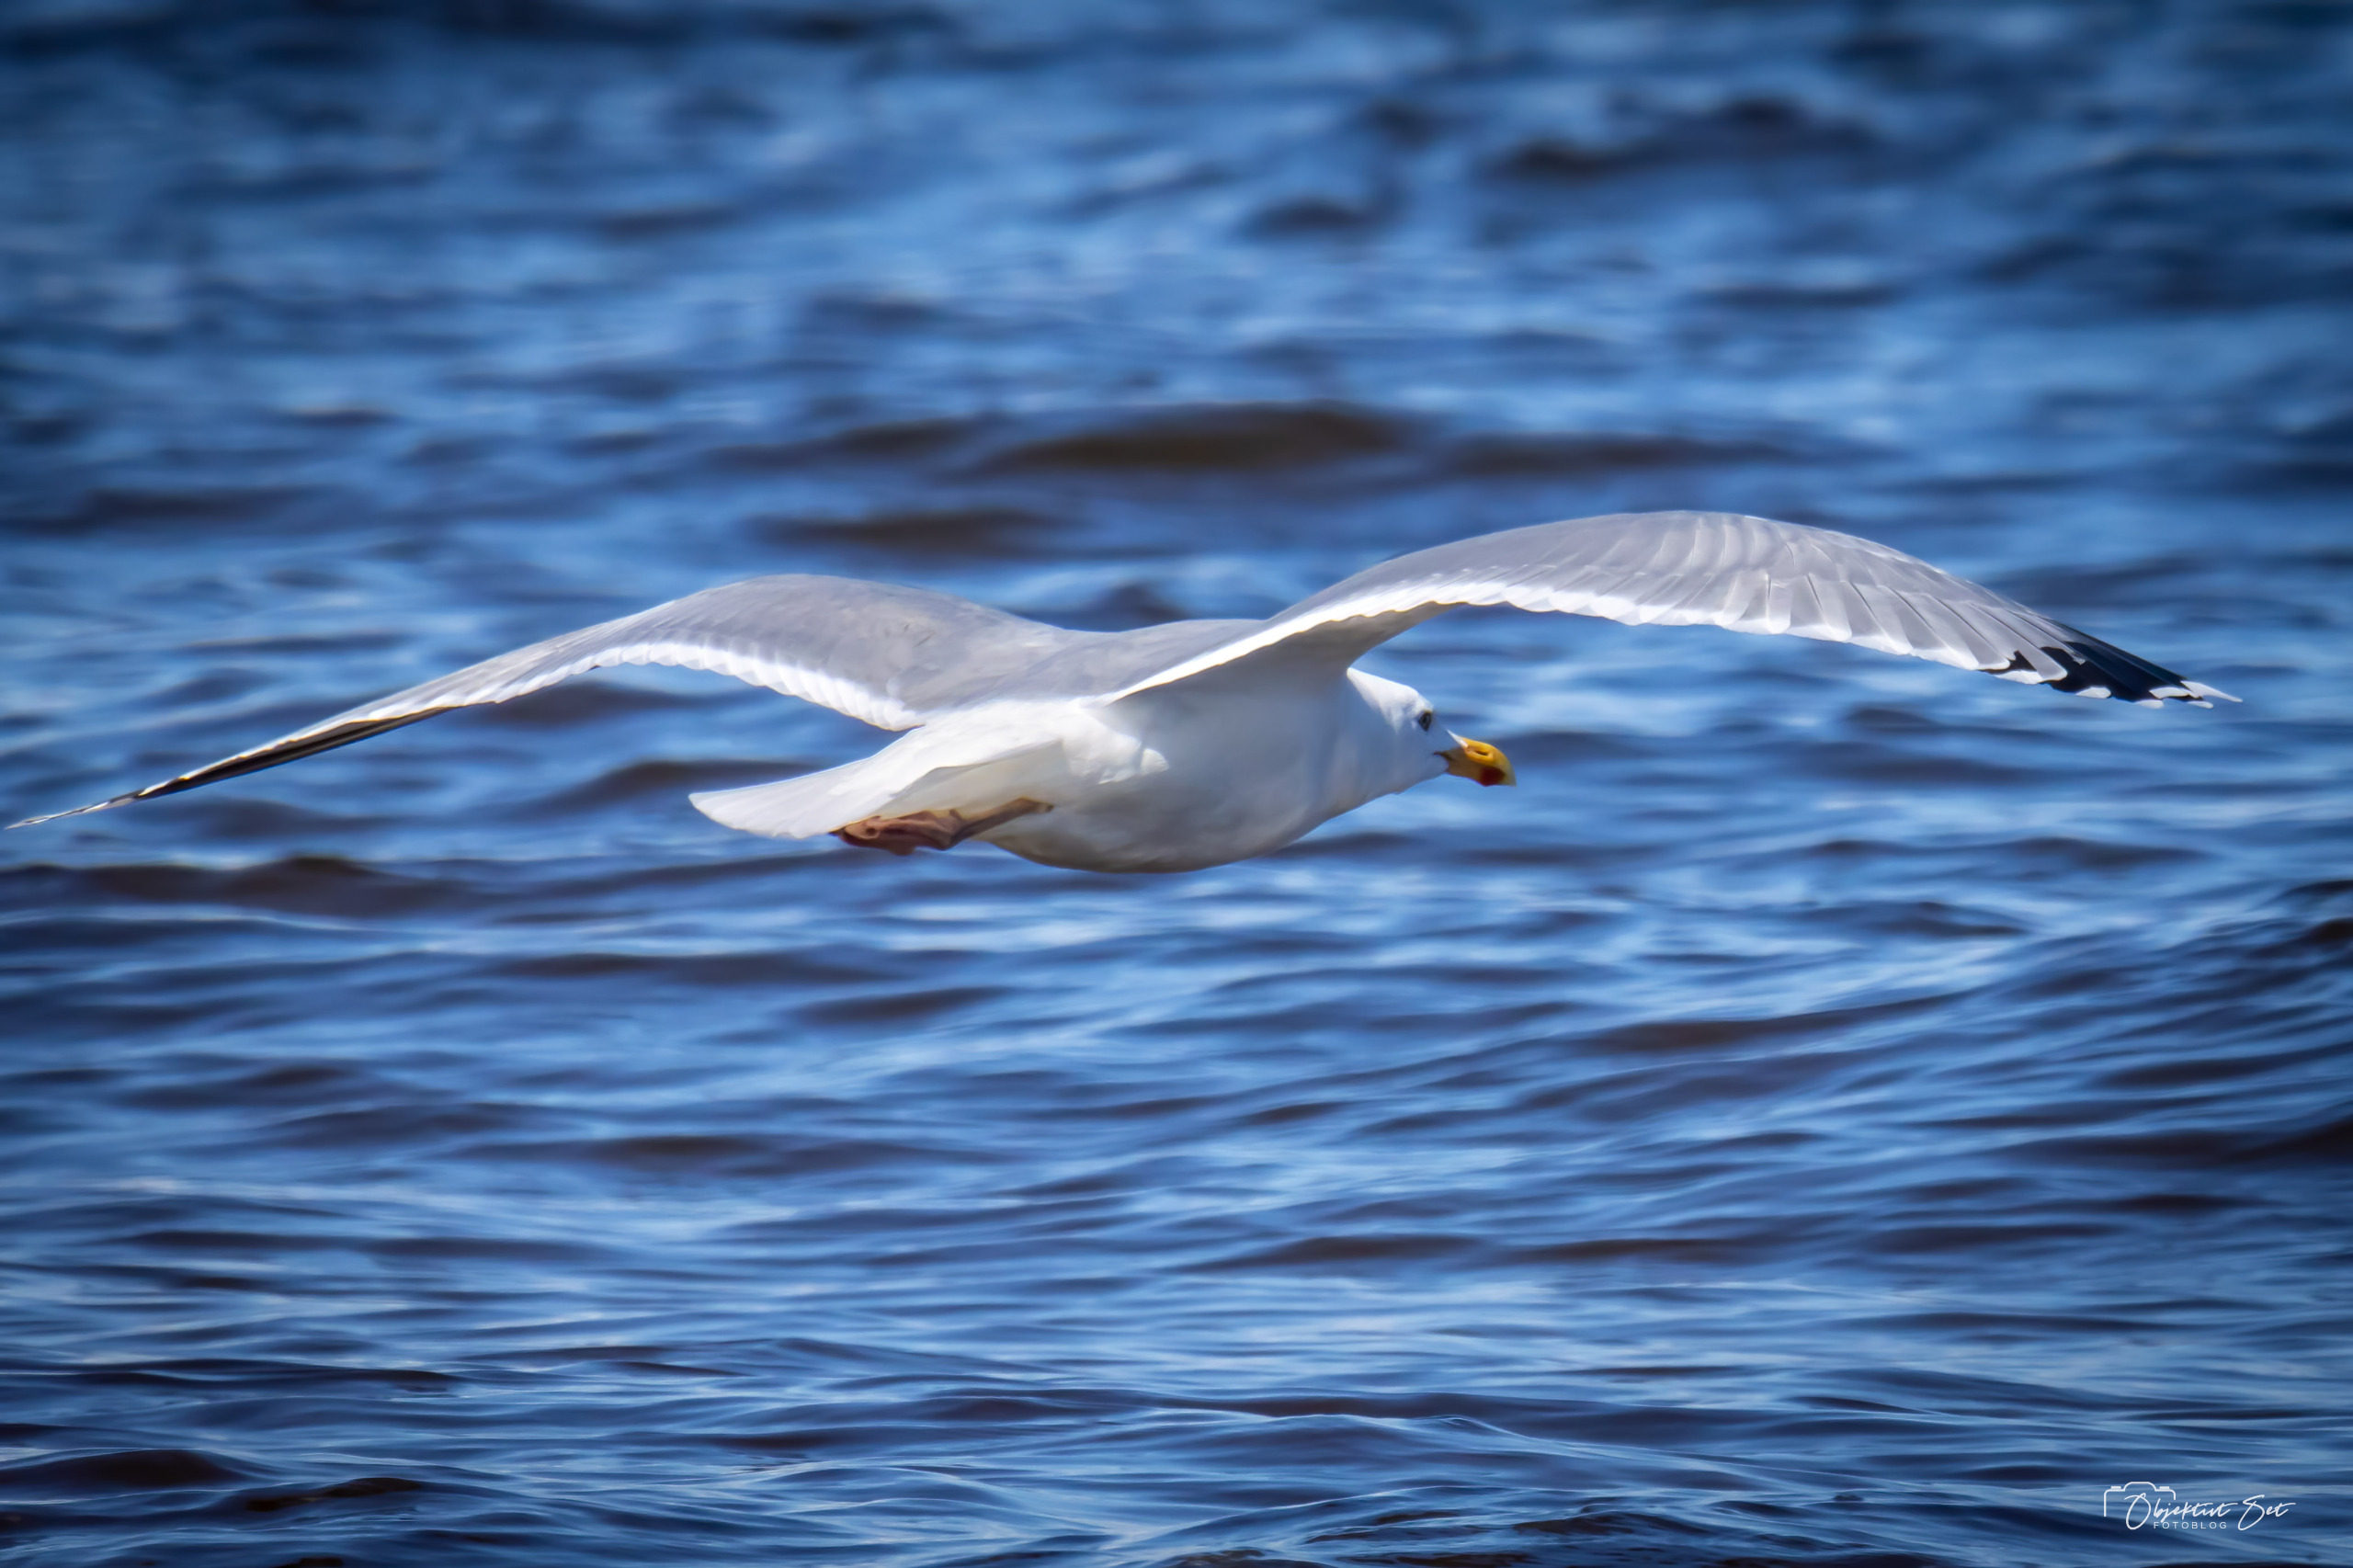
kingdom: Animalia
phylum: Chordata
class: Aves
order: Charadriiformes
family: Laridae
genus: Larus
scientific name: Larus argentatus
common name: Sølvmåge
